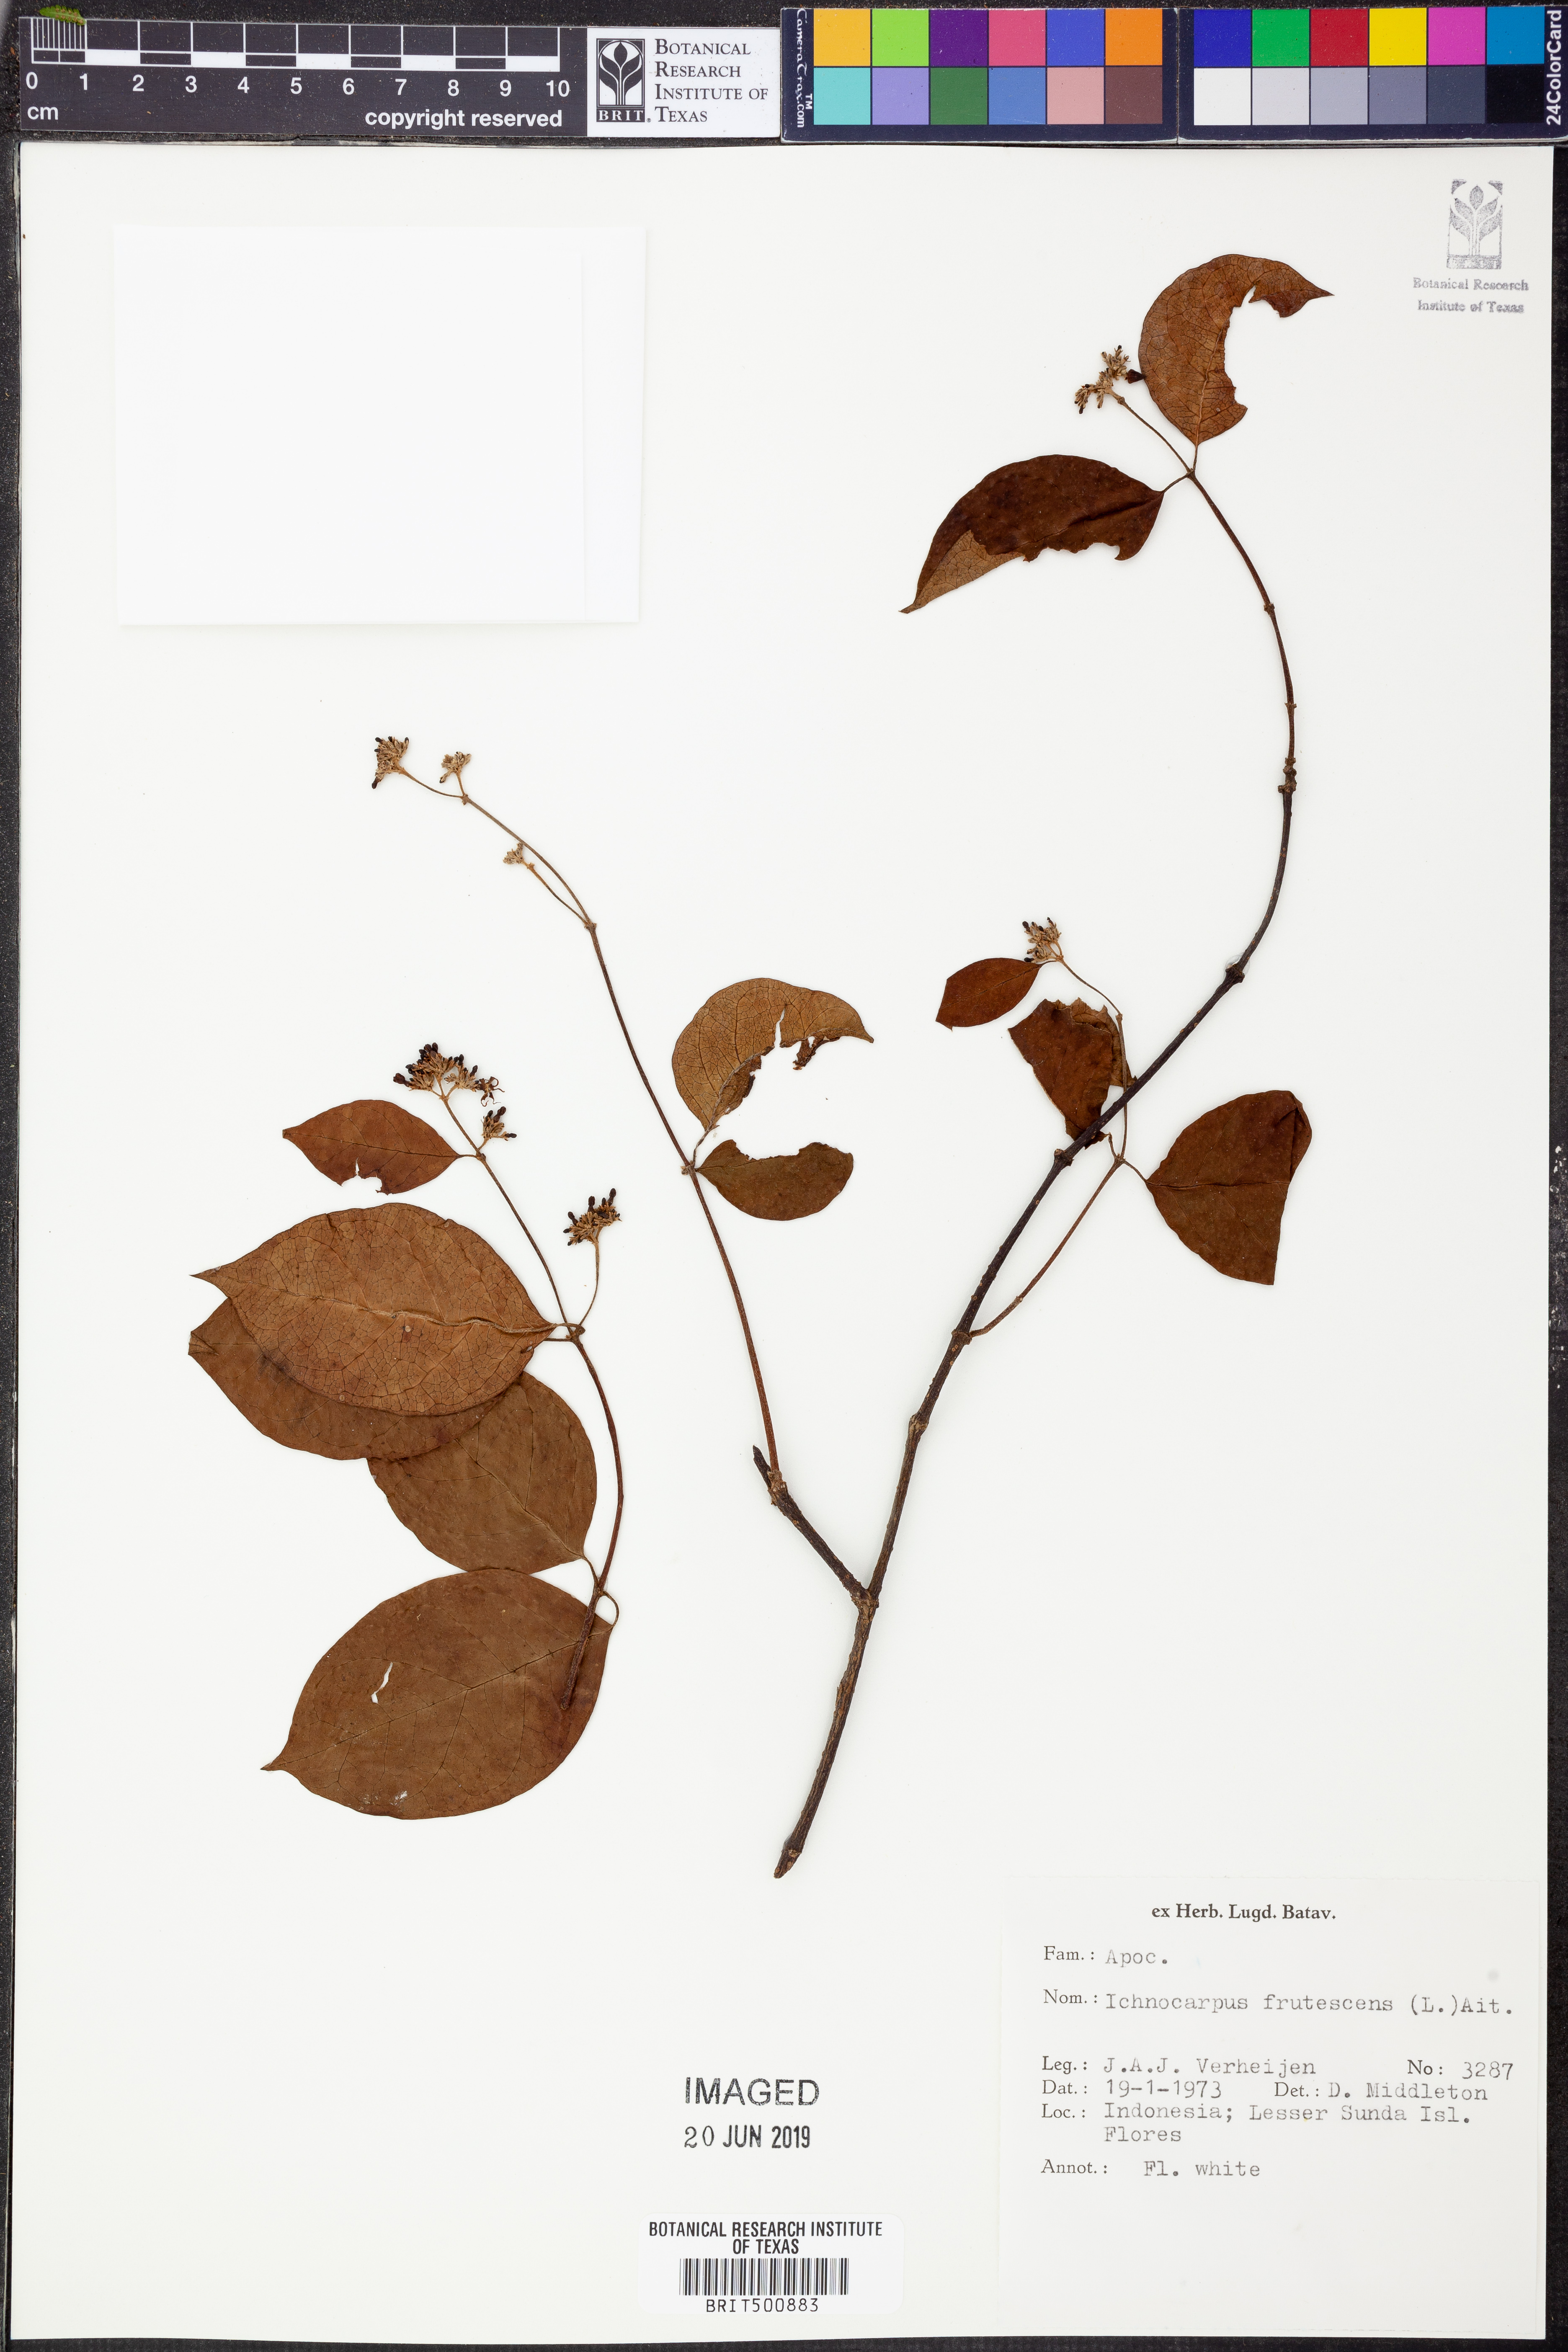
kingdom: Plantae
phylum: Tracheophyta
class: Magnoliopsida
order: Gentianales
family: Apocynaceae
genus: Ichnocarpus
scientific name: Ichnocarpus frutescens
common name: Ichnocarpus
